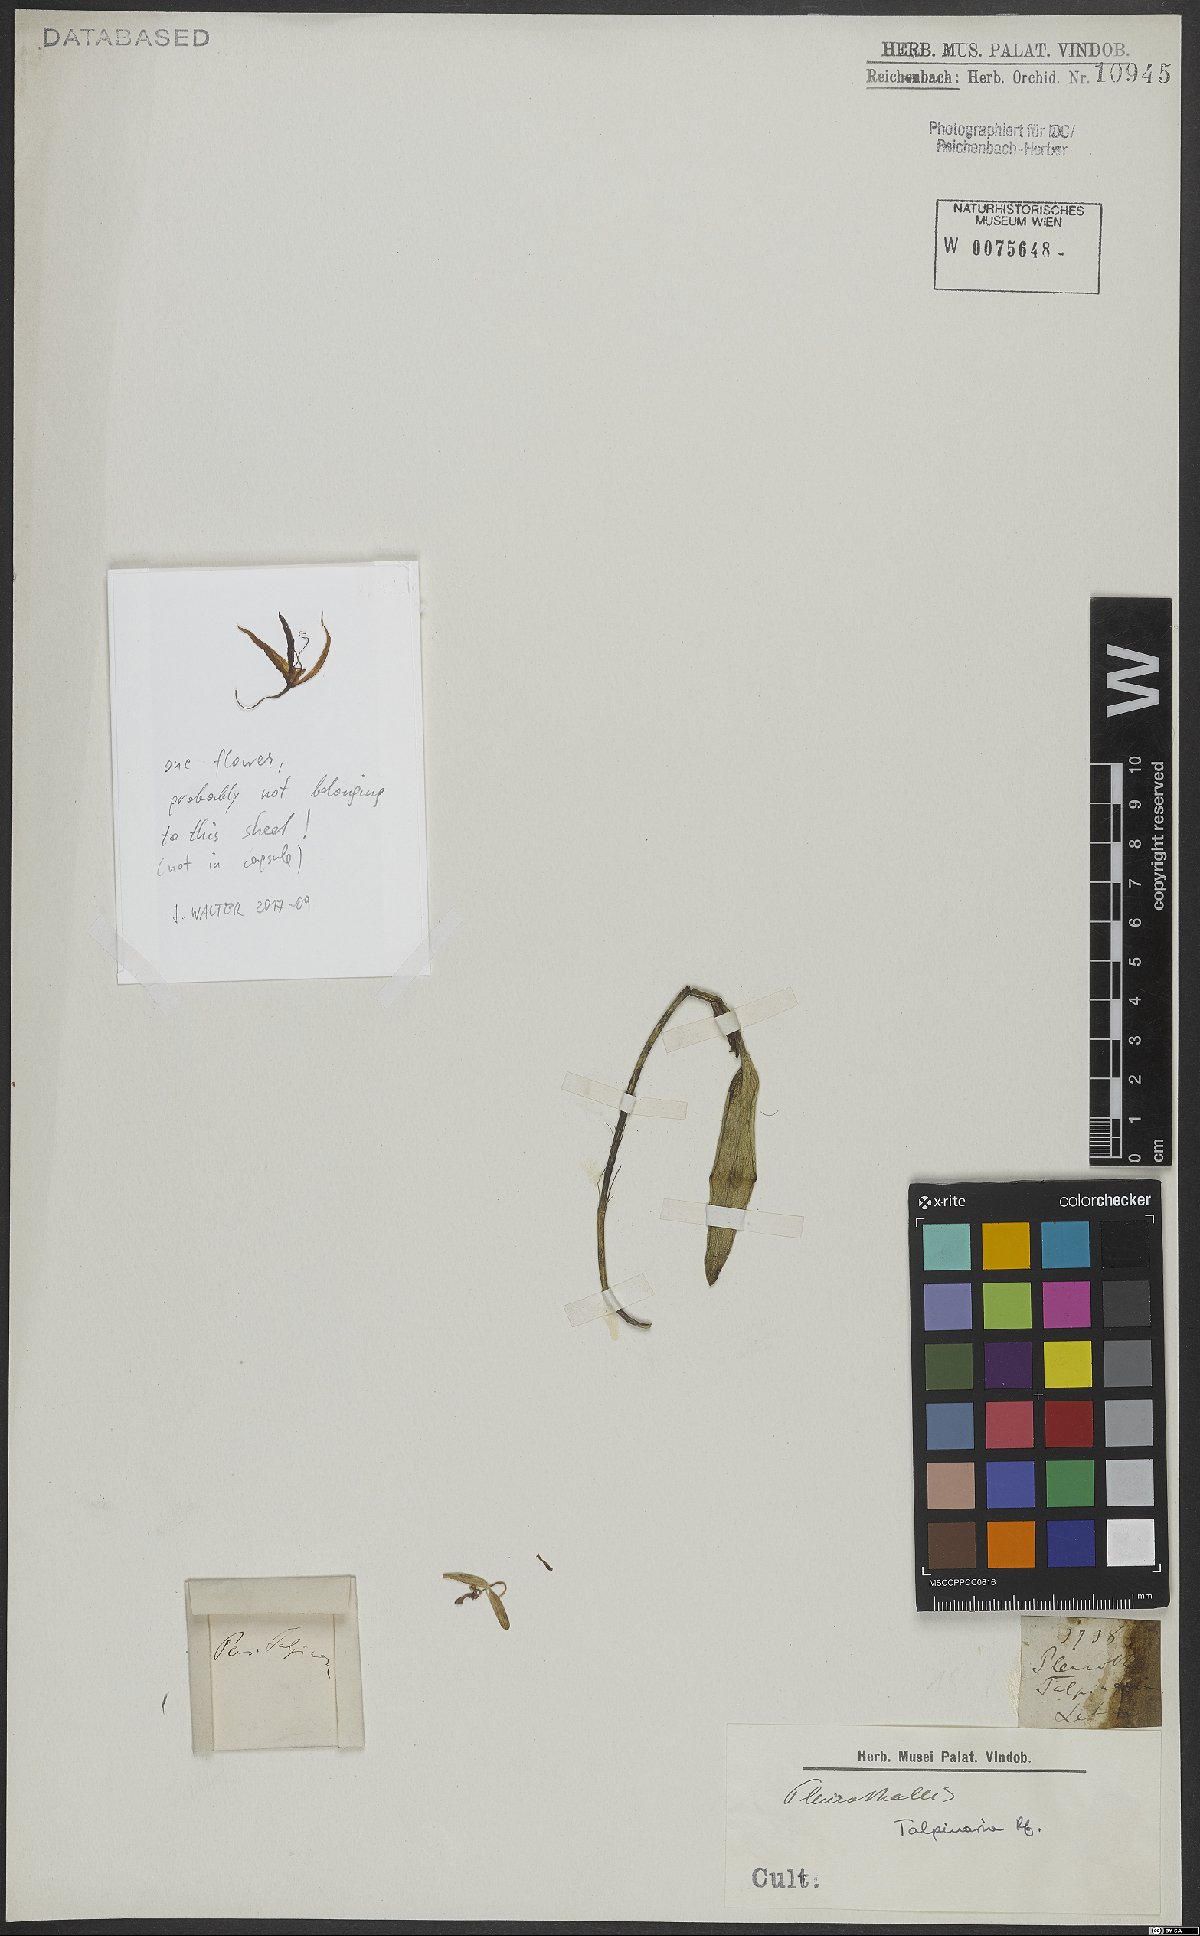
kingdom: Plantae
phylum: Tracheophyta
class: Liliopsida
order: Asparagales
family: Orchidaceae
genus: Pleurothallis
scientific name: Pleurothallis talpinaria
